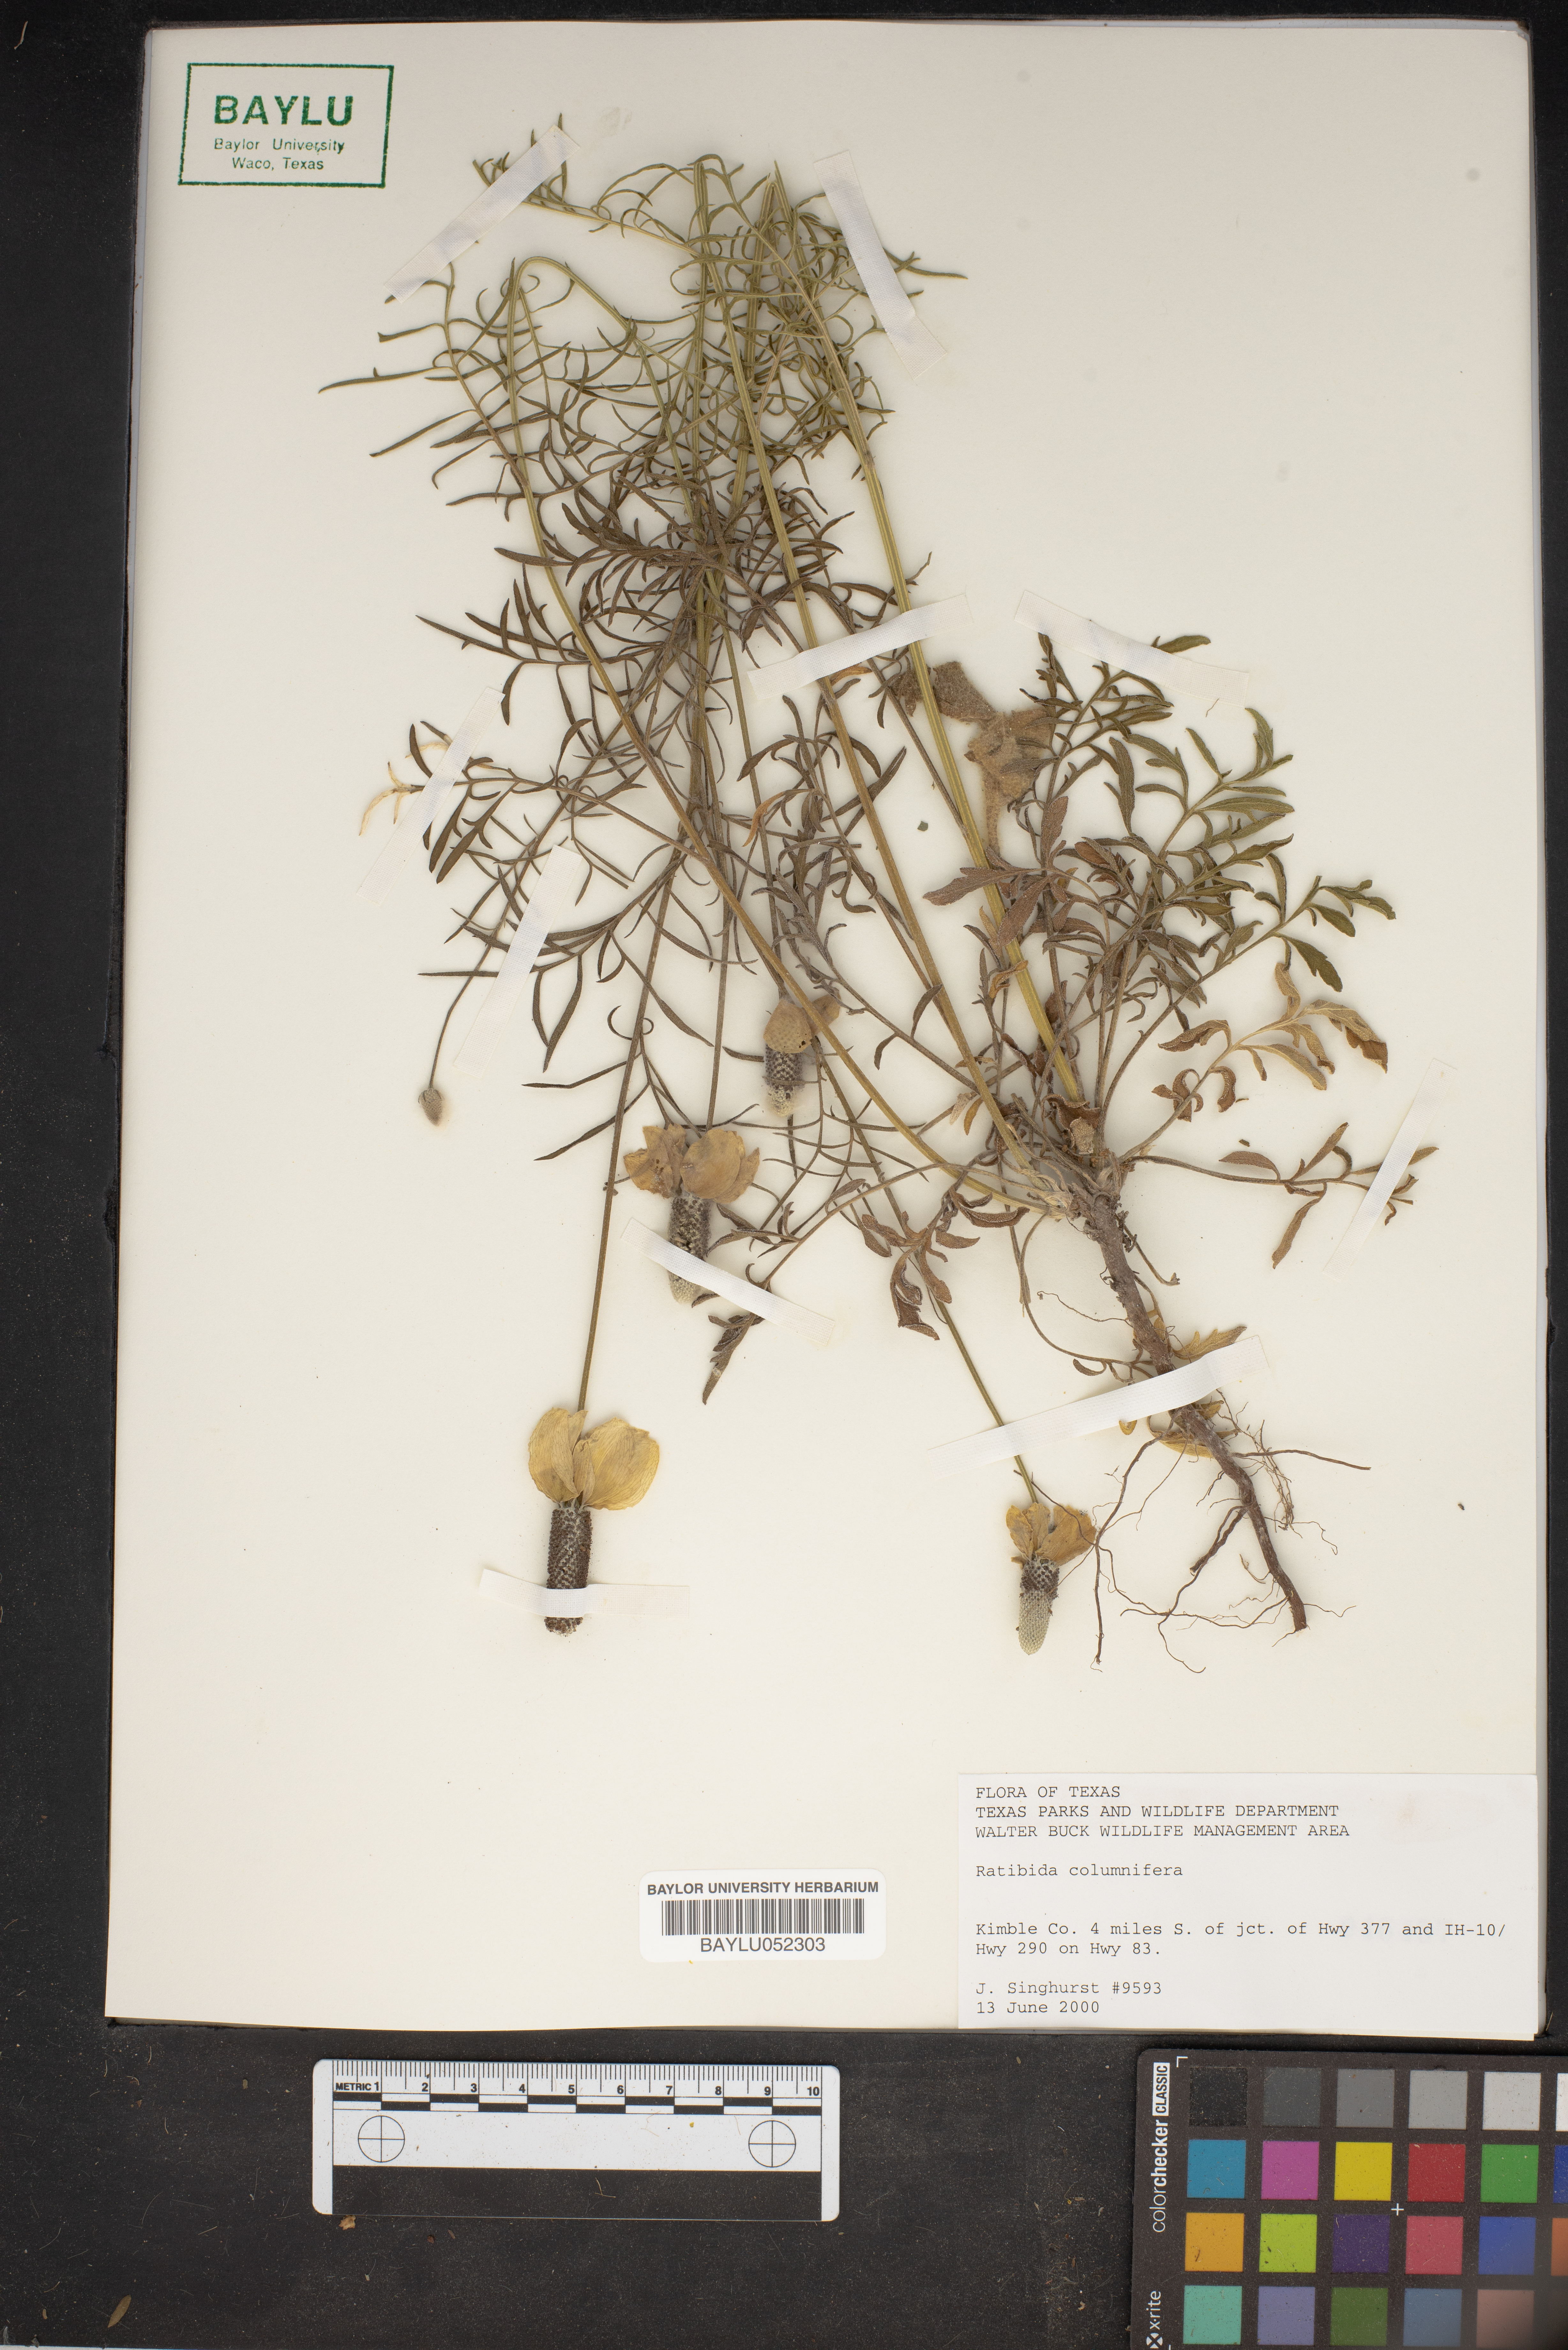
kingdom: Plantae
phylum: Tracheophyta
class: Magnoliopsida
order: Asterales
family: Asteraceae
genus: Ratibida
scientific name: Ratibida columnifera
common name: Prairie coneflower
